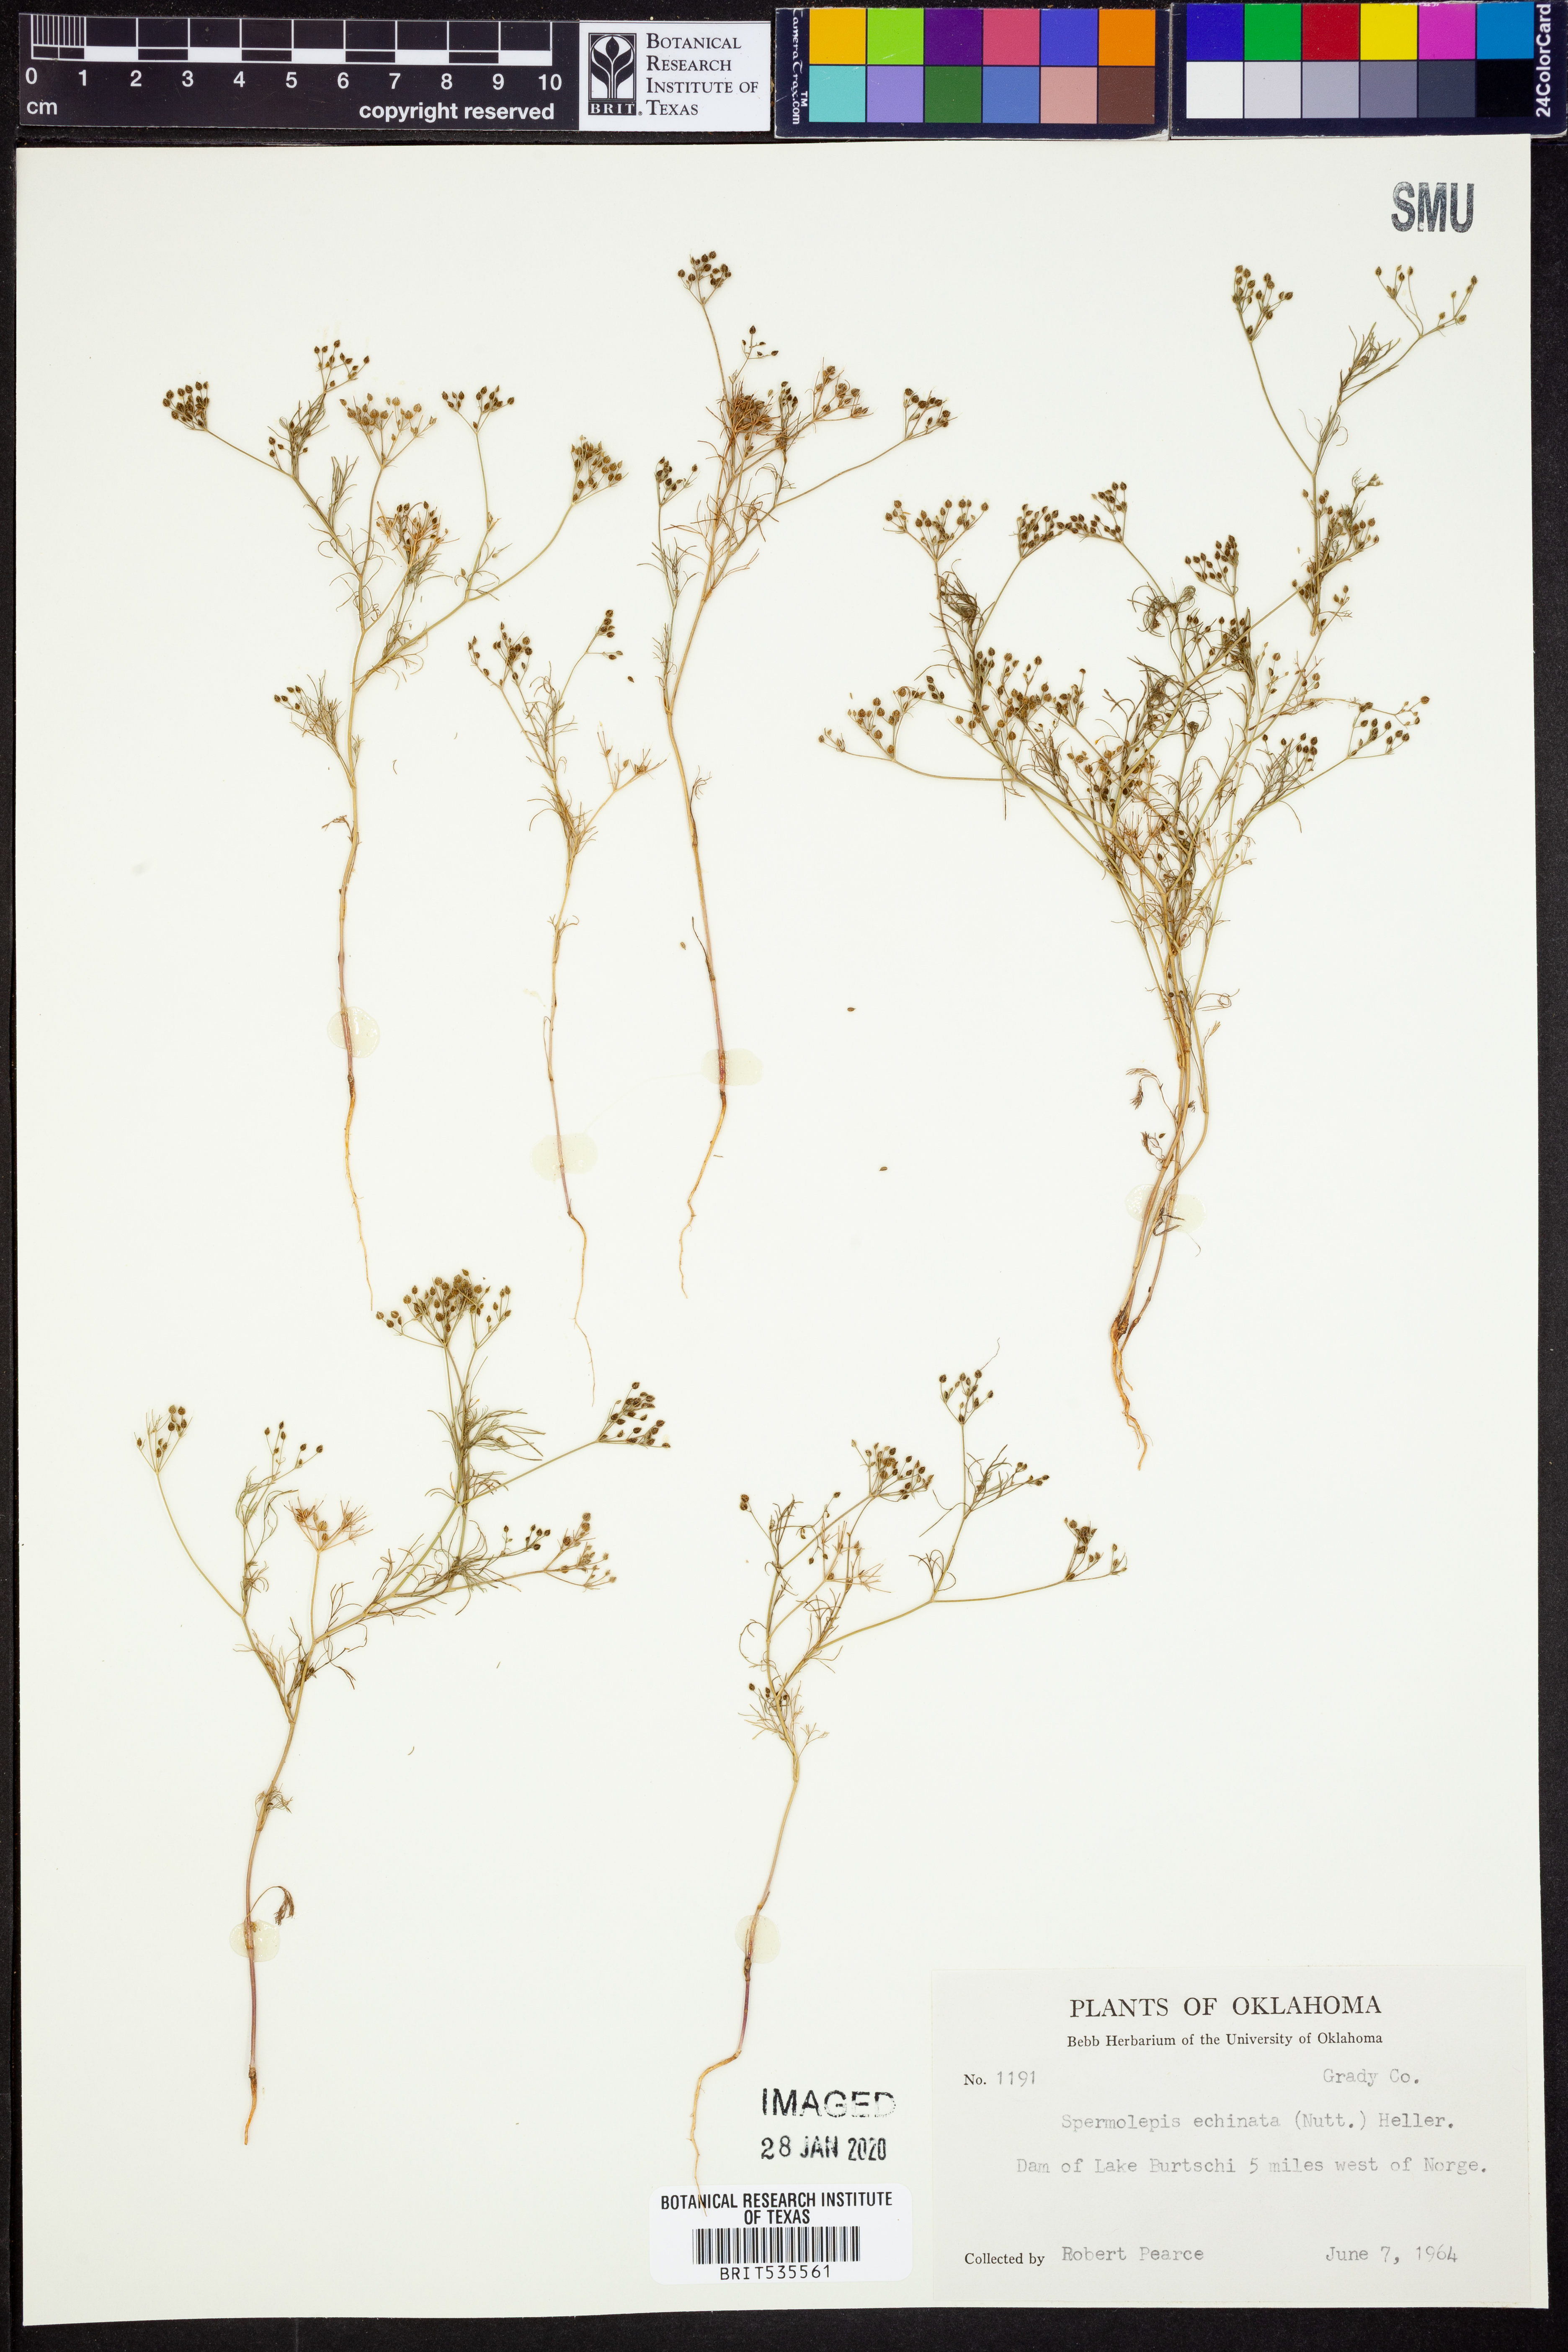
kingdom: Plantae
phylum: Tracheophyta
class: Magnoliopsida
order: Apiales
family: Apiaceae
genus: Spermolepis
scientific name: Spermolepis echinata
